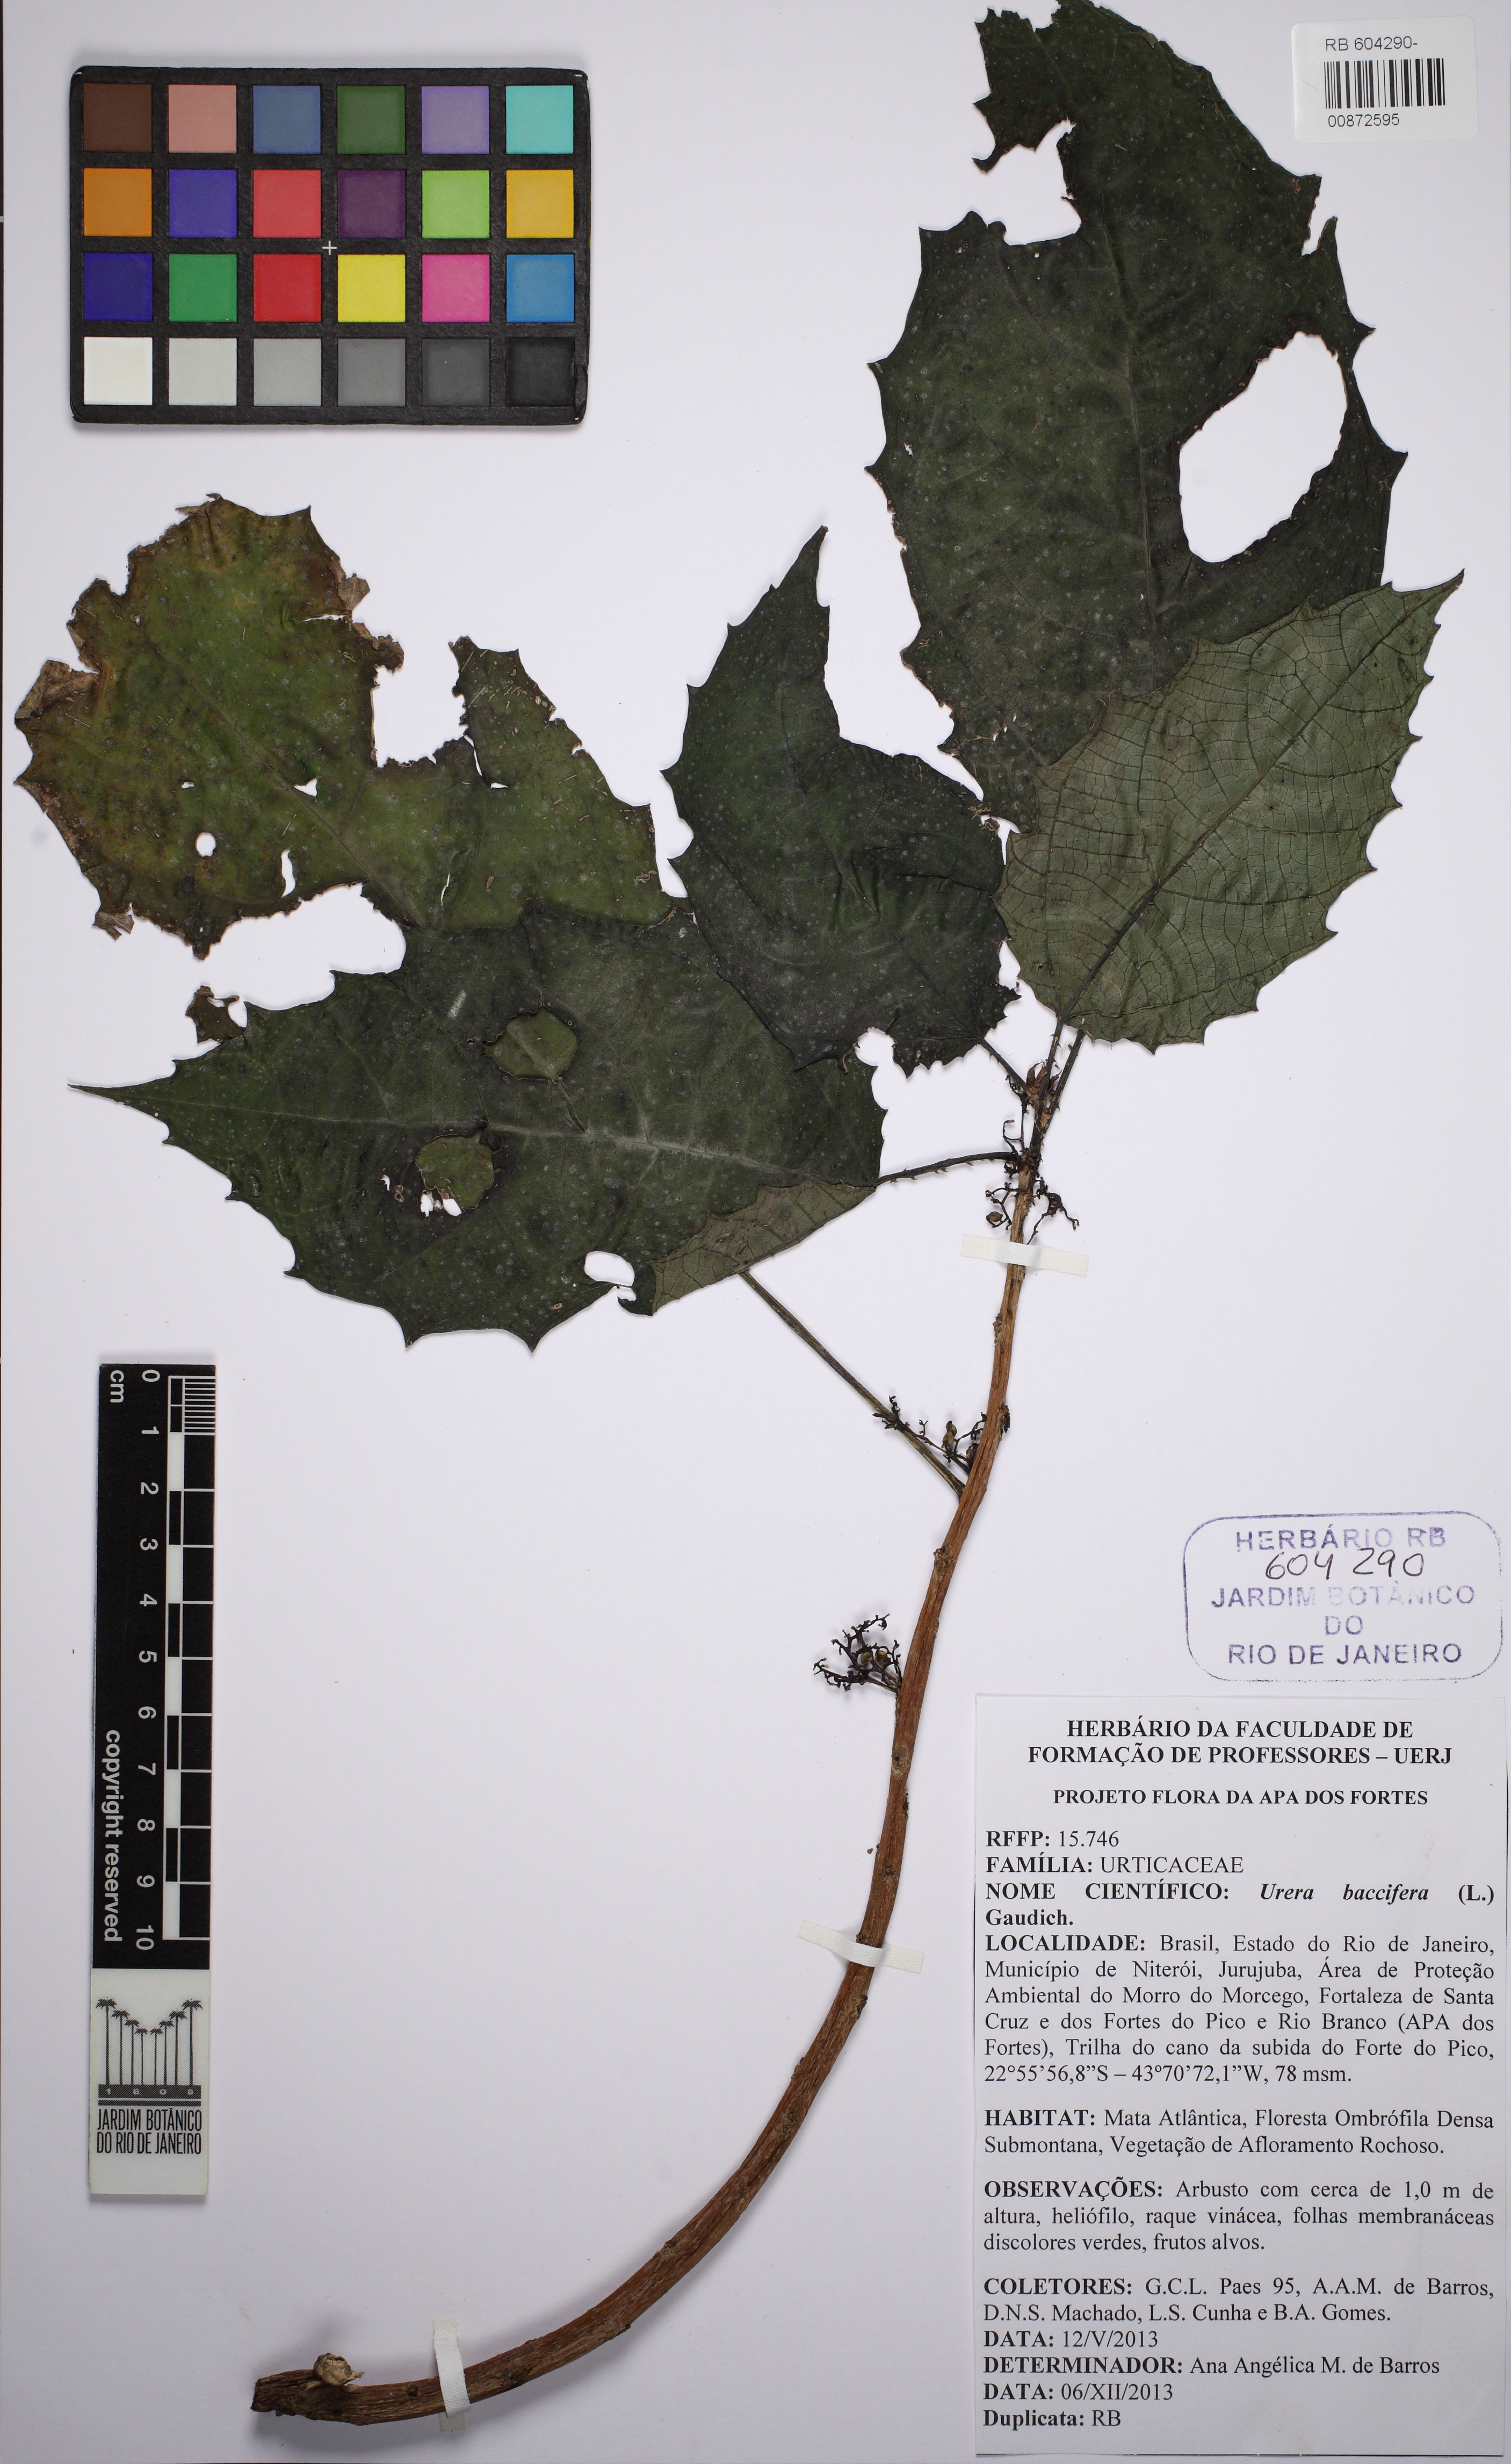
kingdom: Plantae
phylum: Tracheophyta
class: Magnoliopsida
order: Rosales
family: Urticaceae
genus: Urera
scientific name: Urera baccifera
